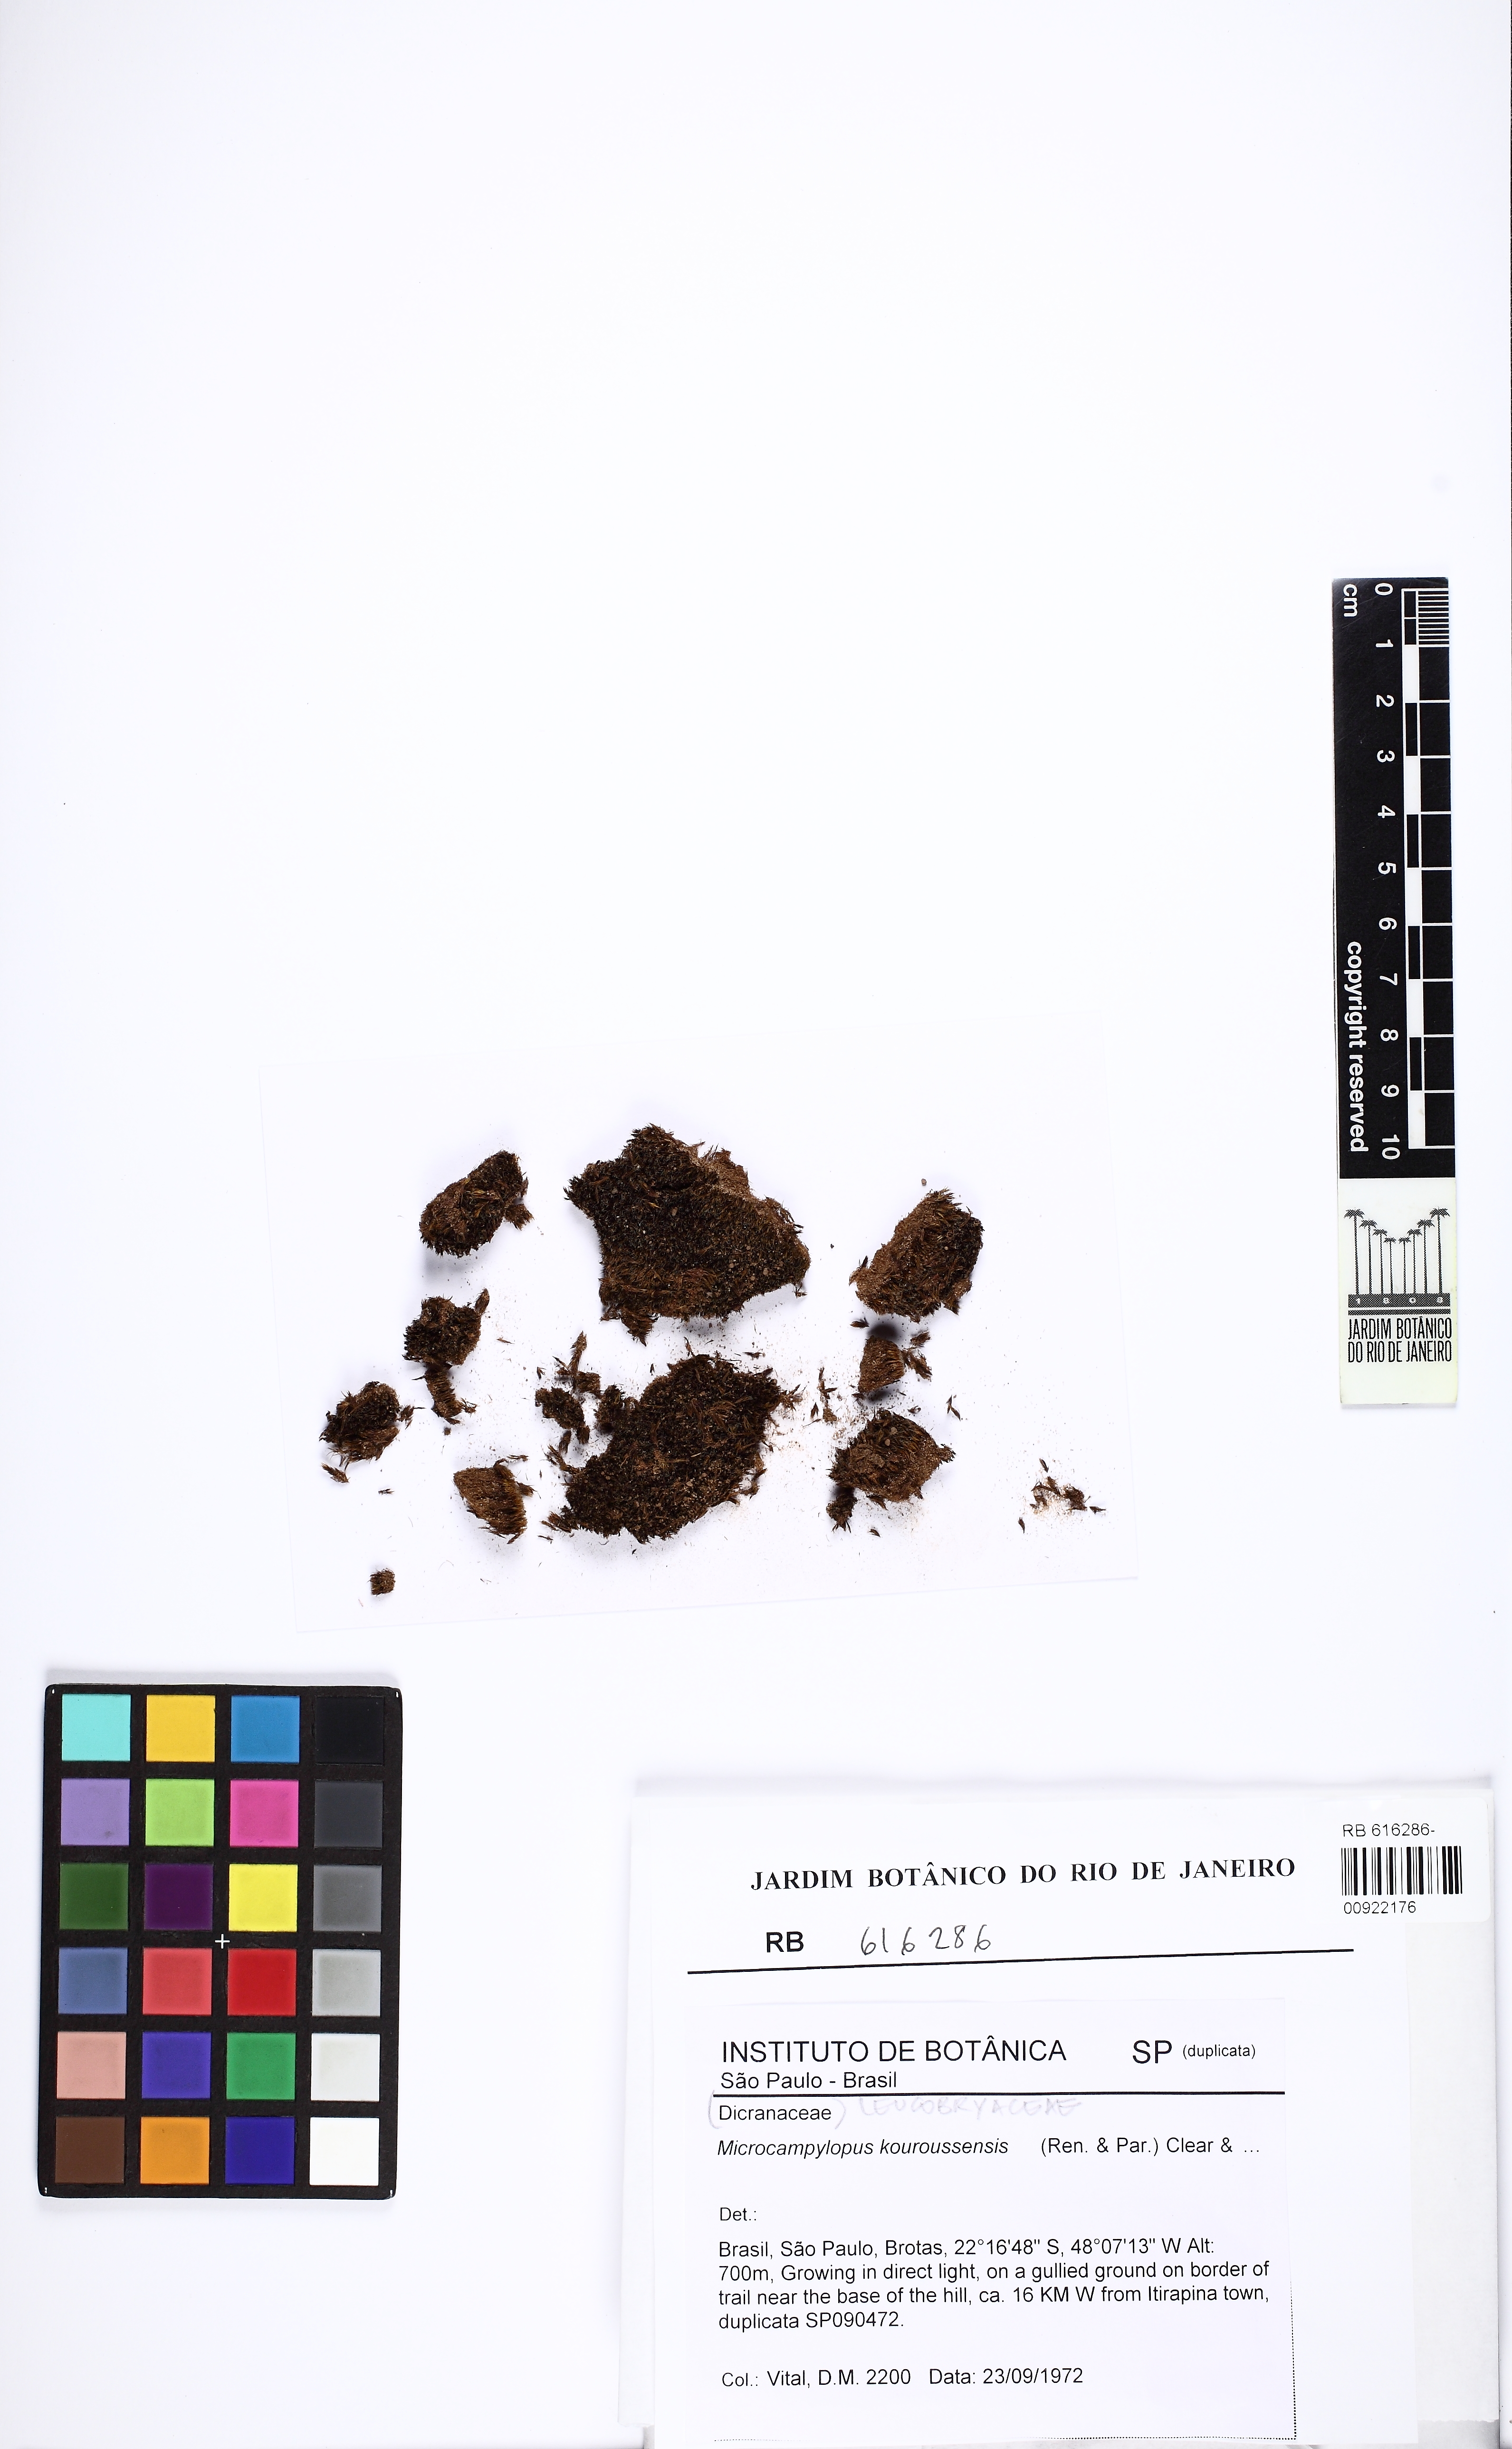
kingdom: Plantae
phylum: Bryophyta
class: Bryopsida
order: Dicranales
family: Leucobryaceae
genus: Campylopus
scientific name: Campylopus perpusillus
